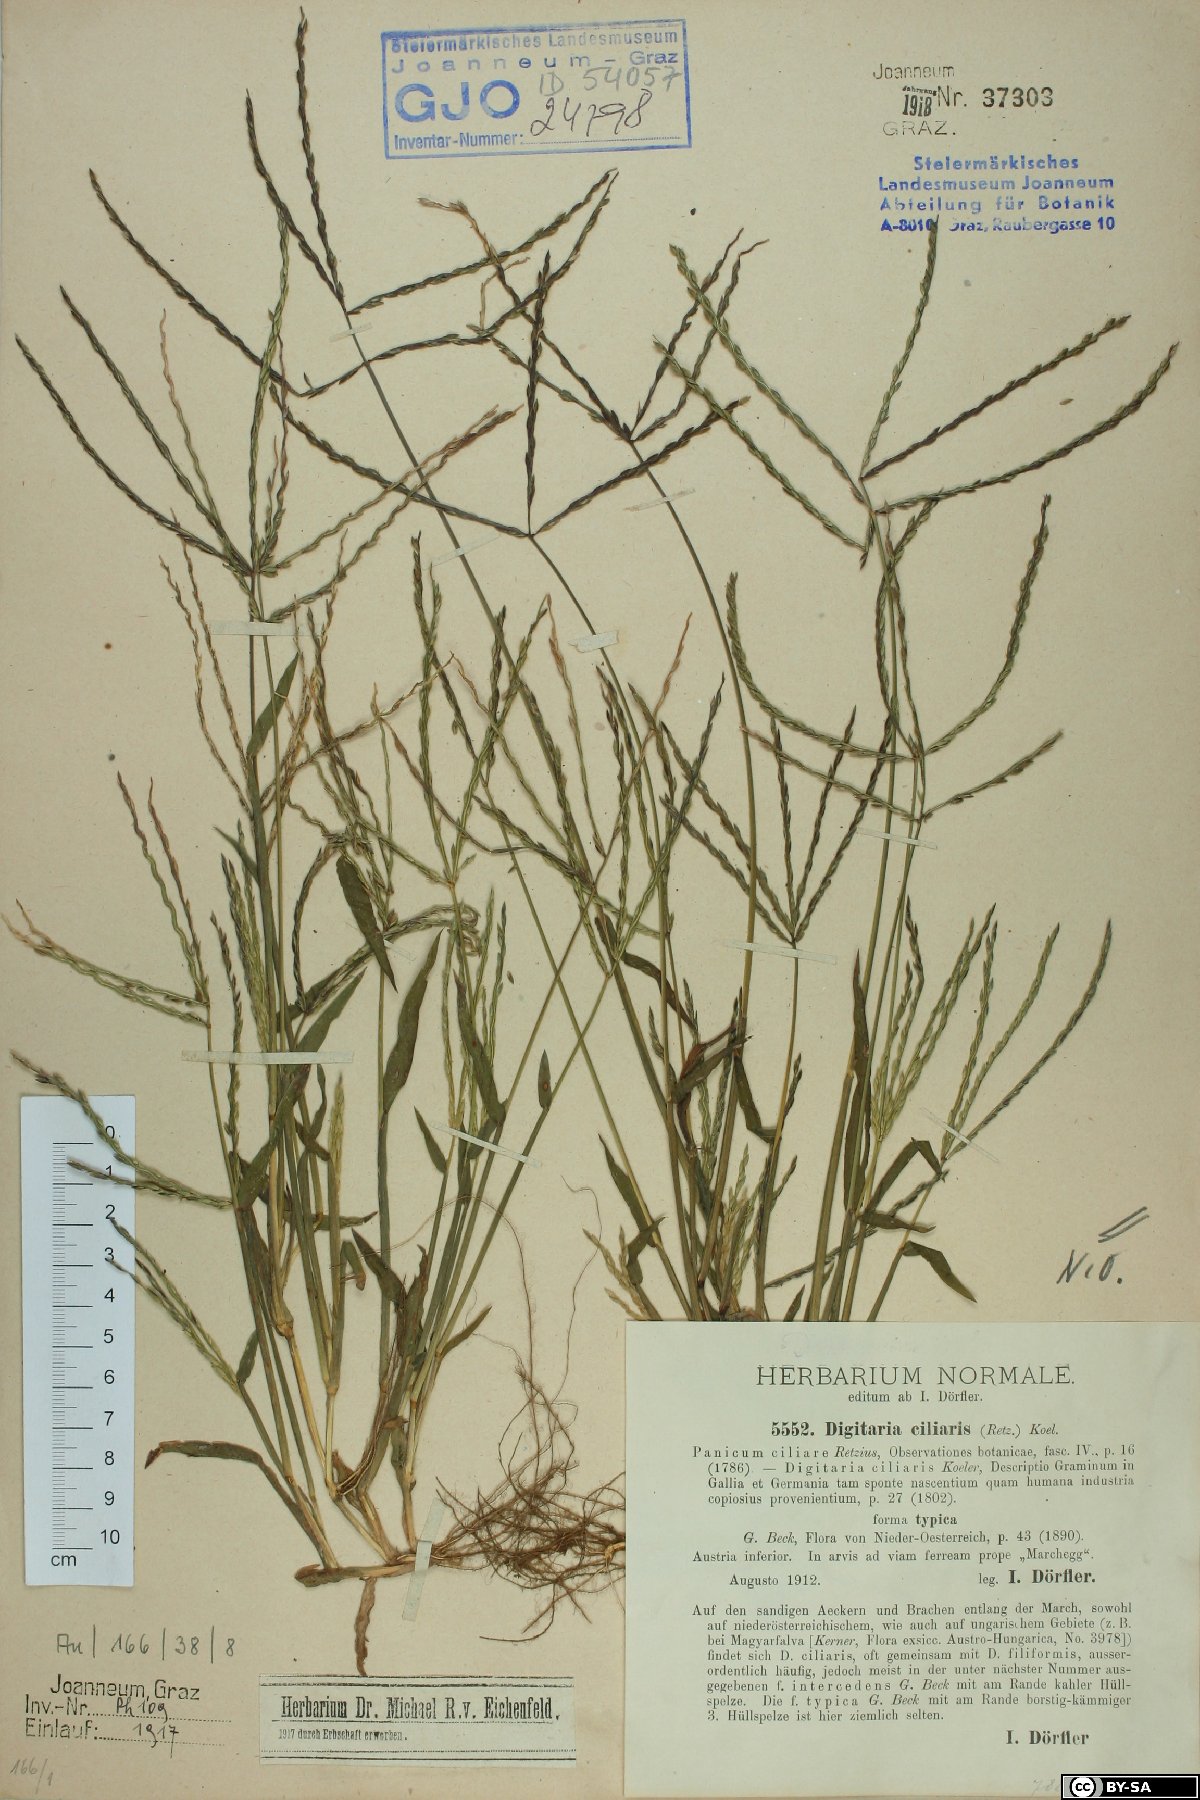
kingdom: Plantae
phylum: Tracheophyta
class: Liliopsida
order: Poales
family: Poaceae
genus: Digitaria
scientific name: Digitaria ciliaris
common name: Tropical finger-grass
